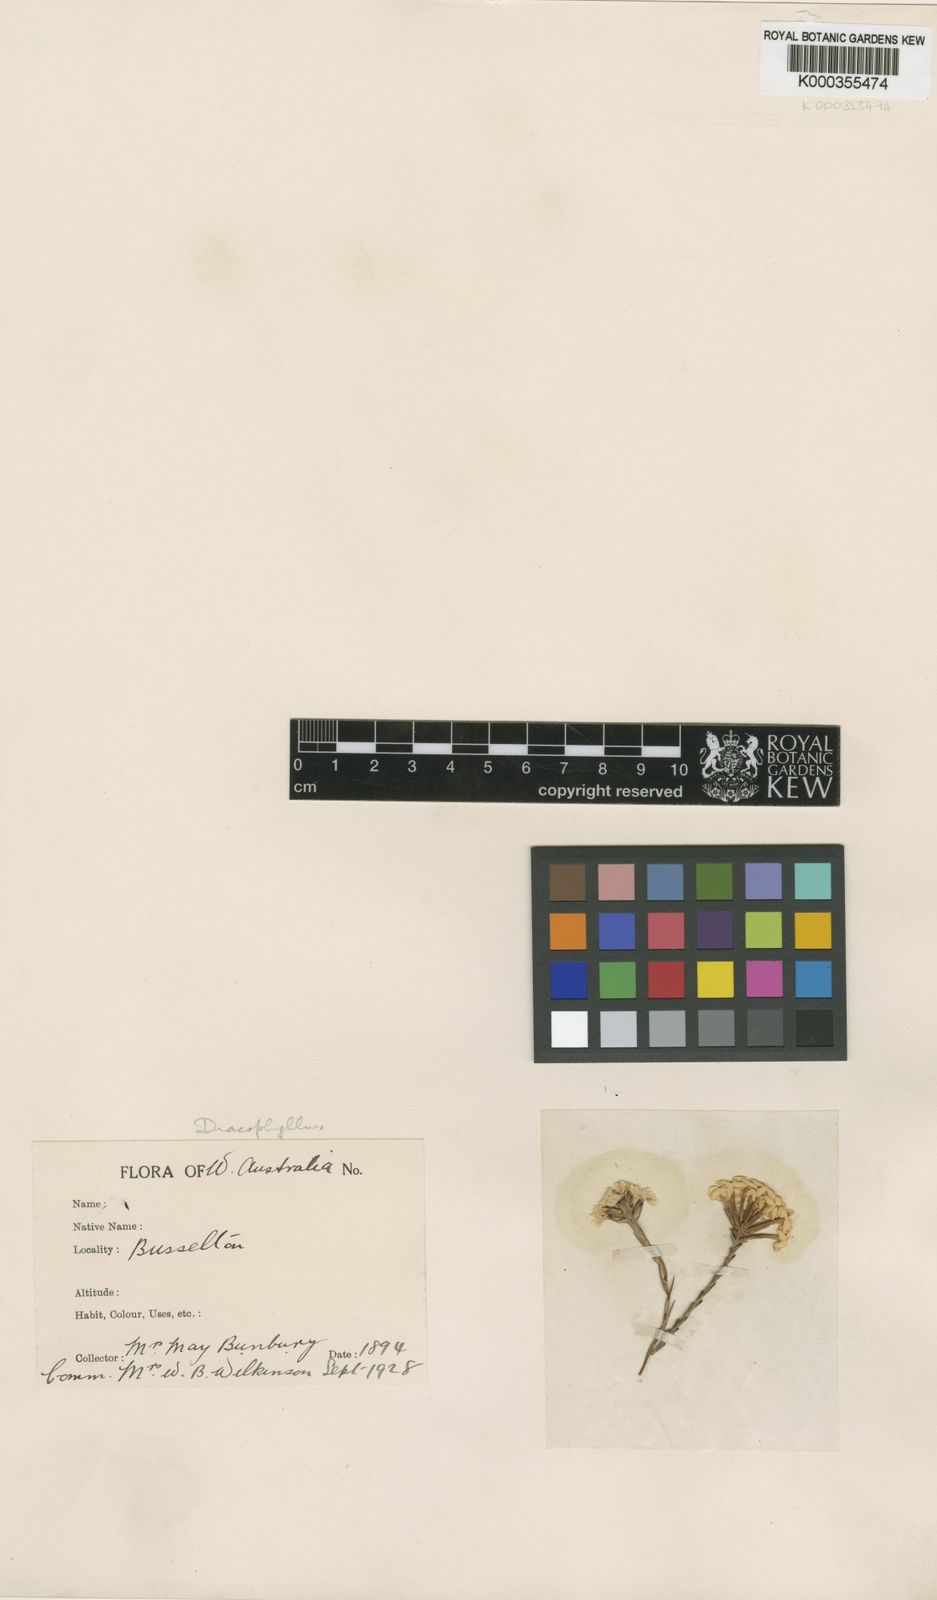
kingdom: Plantae
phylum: Tracheophyta
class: Magnoliopsida
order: Ericales
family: Ericaceae
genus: Dracophyllum
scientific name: Dracophyllum
